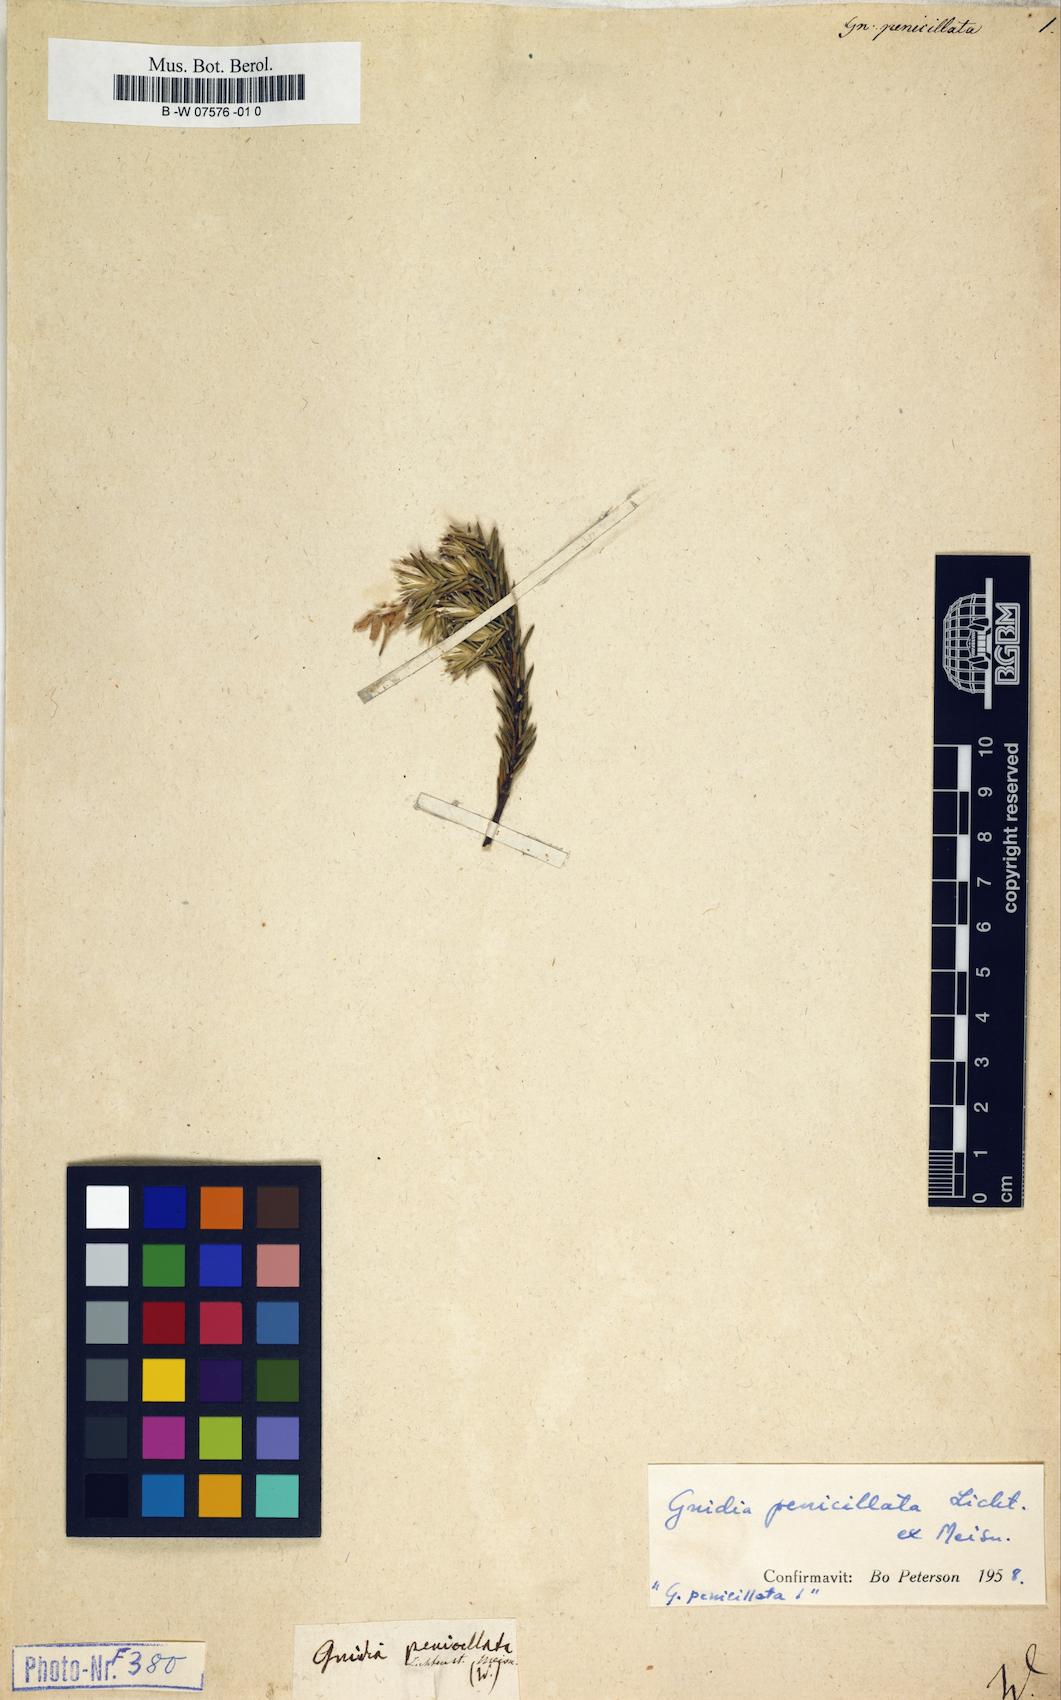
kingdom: Plantae
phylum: Tracheophyta
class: Magnoliopsida
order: Malvales
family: Thymelaeaceae
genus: Gnidia
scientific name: Gnidia penicillata
